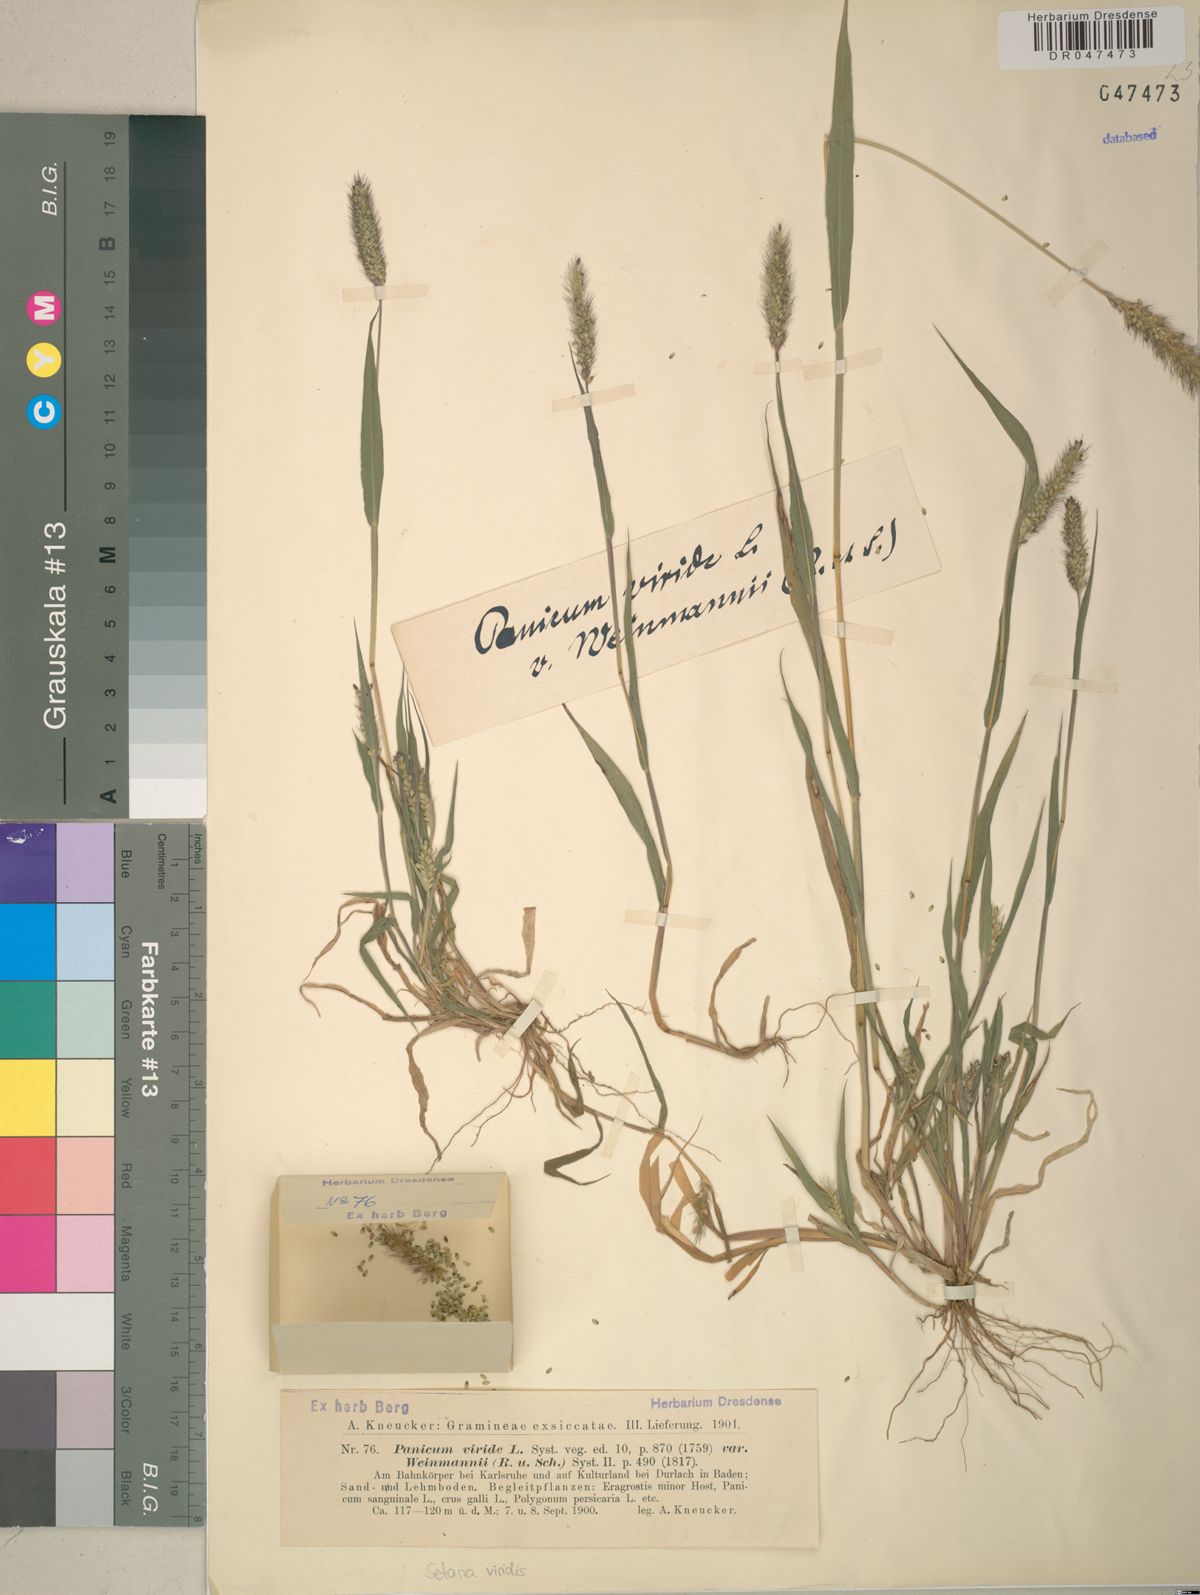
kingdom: Plantae
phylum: Tracheophyta
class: Liliopsida
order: Poales
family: Poaceae
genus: Setaria
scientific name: Setaria viridis
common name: Green bristlegrass
